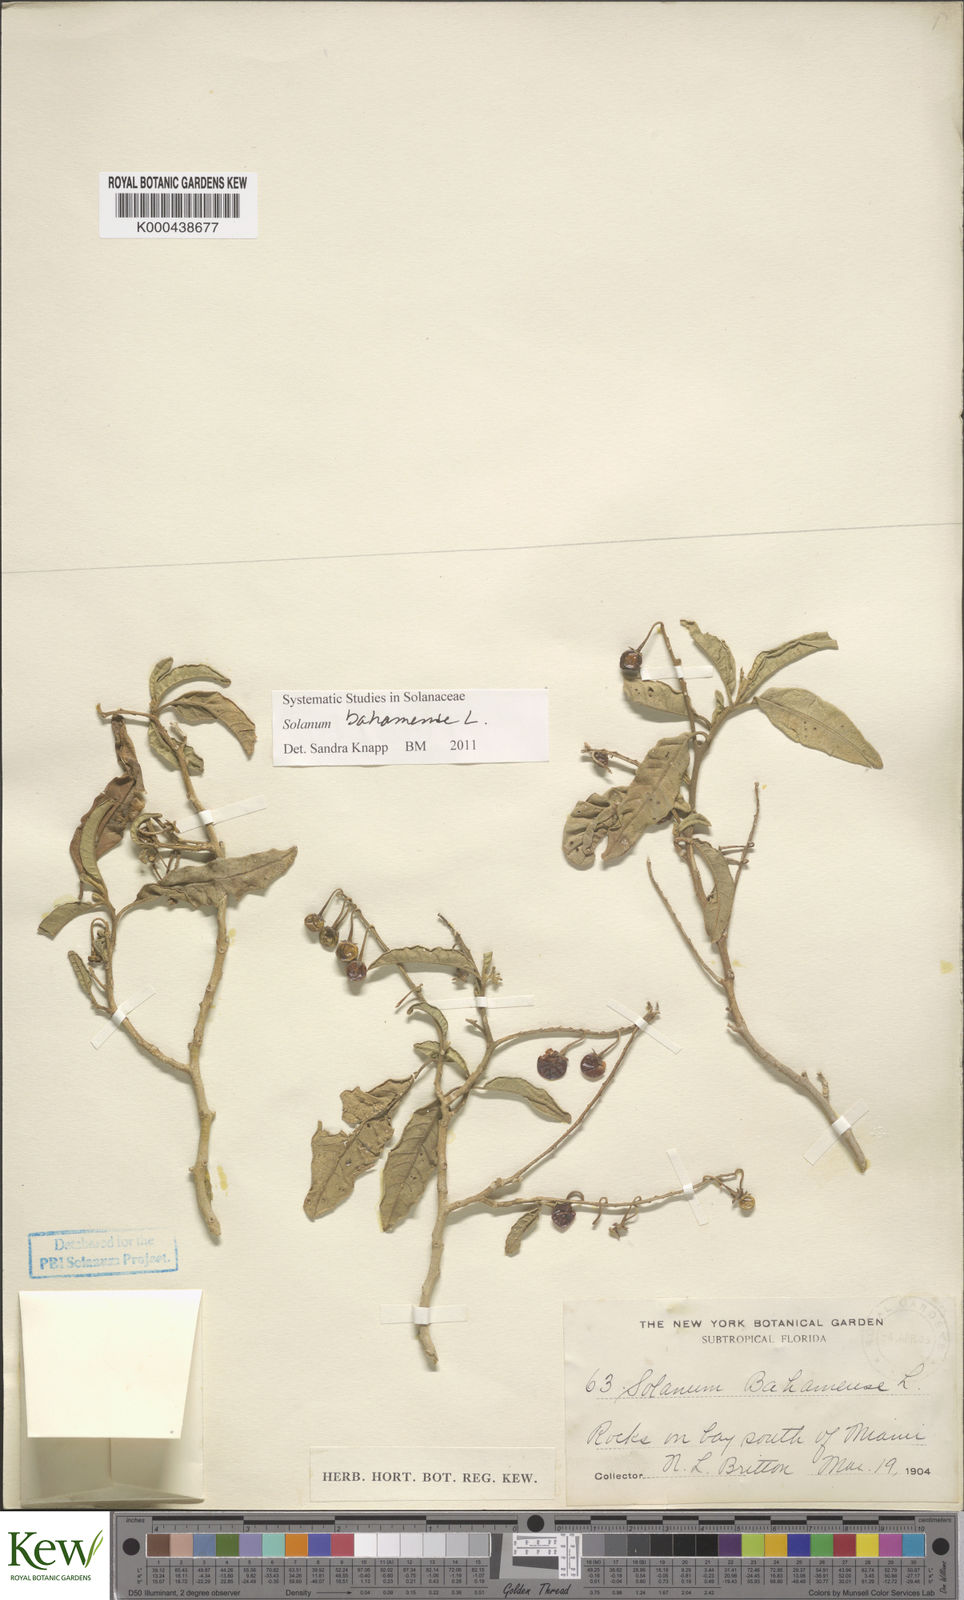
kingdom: Plantae
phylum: Tracheophyta
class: Magnoliopsida
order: Solanales
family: Solanaceae
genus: Solanum
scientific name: Solanum bahamense
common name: Canker-berry
